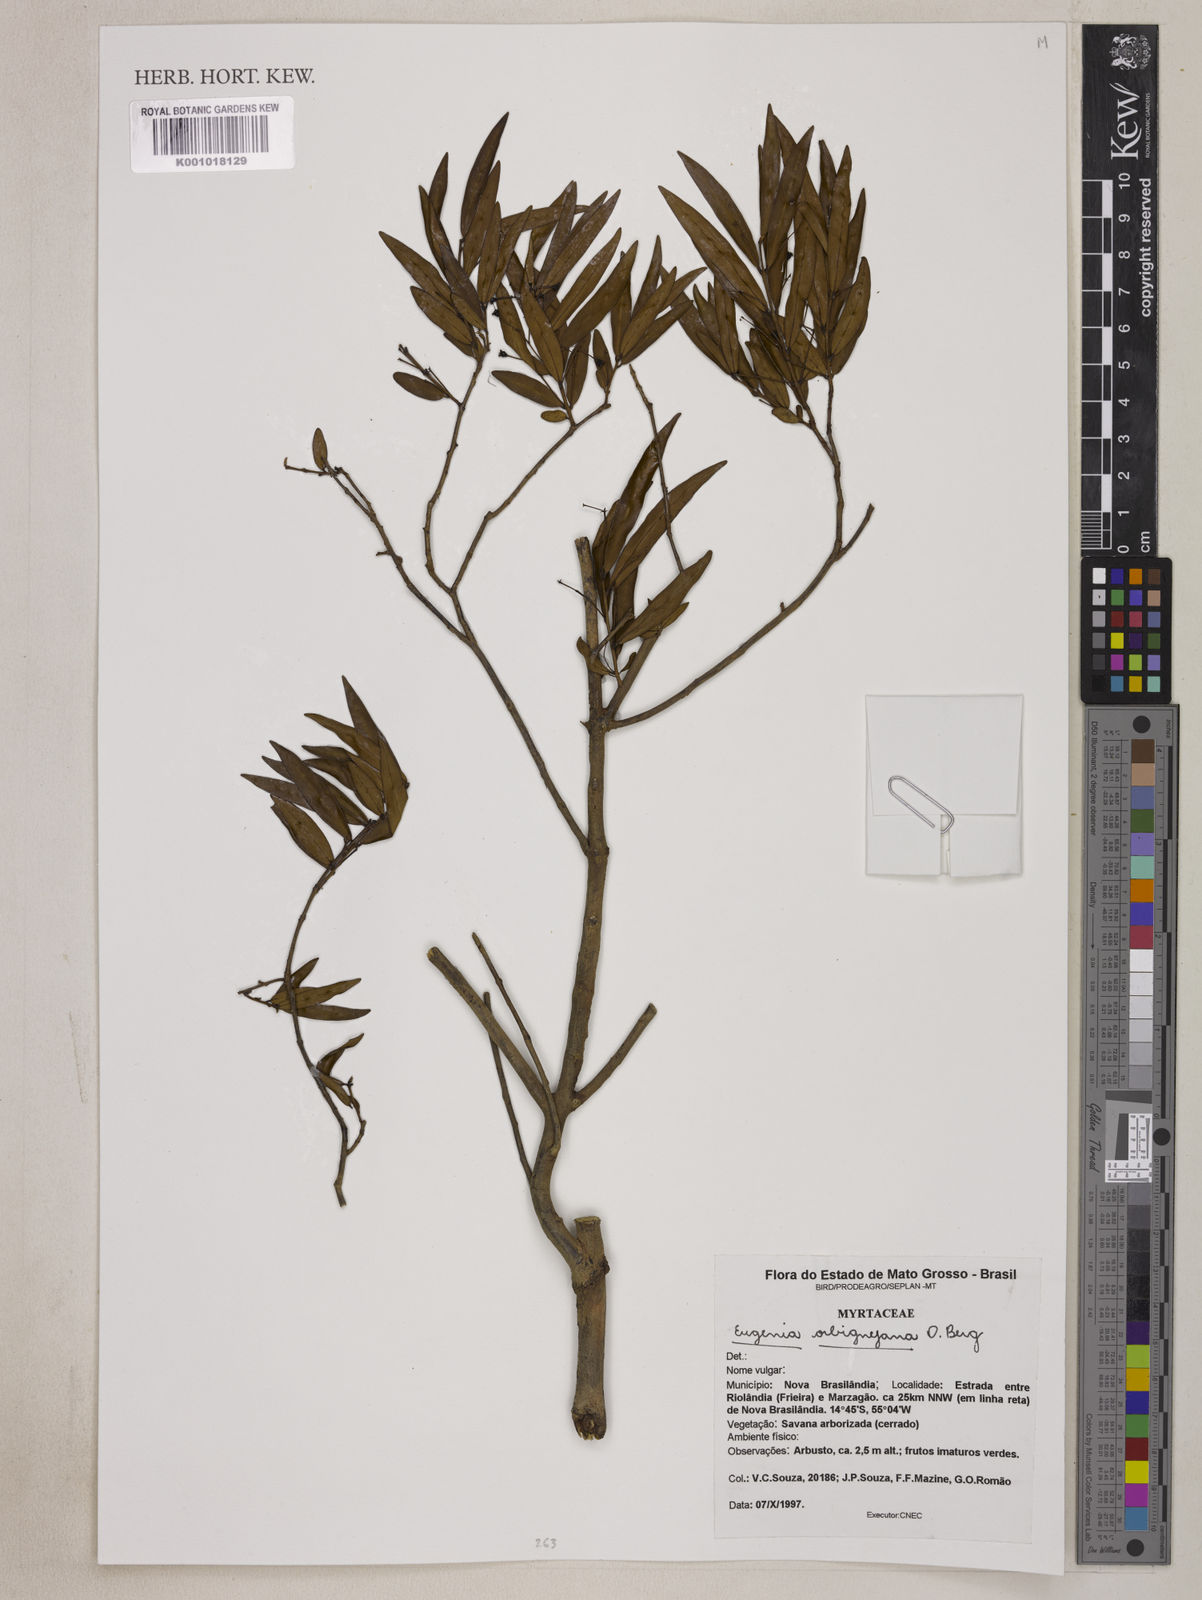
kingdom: Plantae
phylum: Tracheophyta
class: Magnoliopsida
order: Myrtales
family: Myrtaceae
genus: Eugenia
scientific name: Eugenia orbignyana
